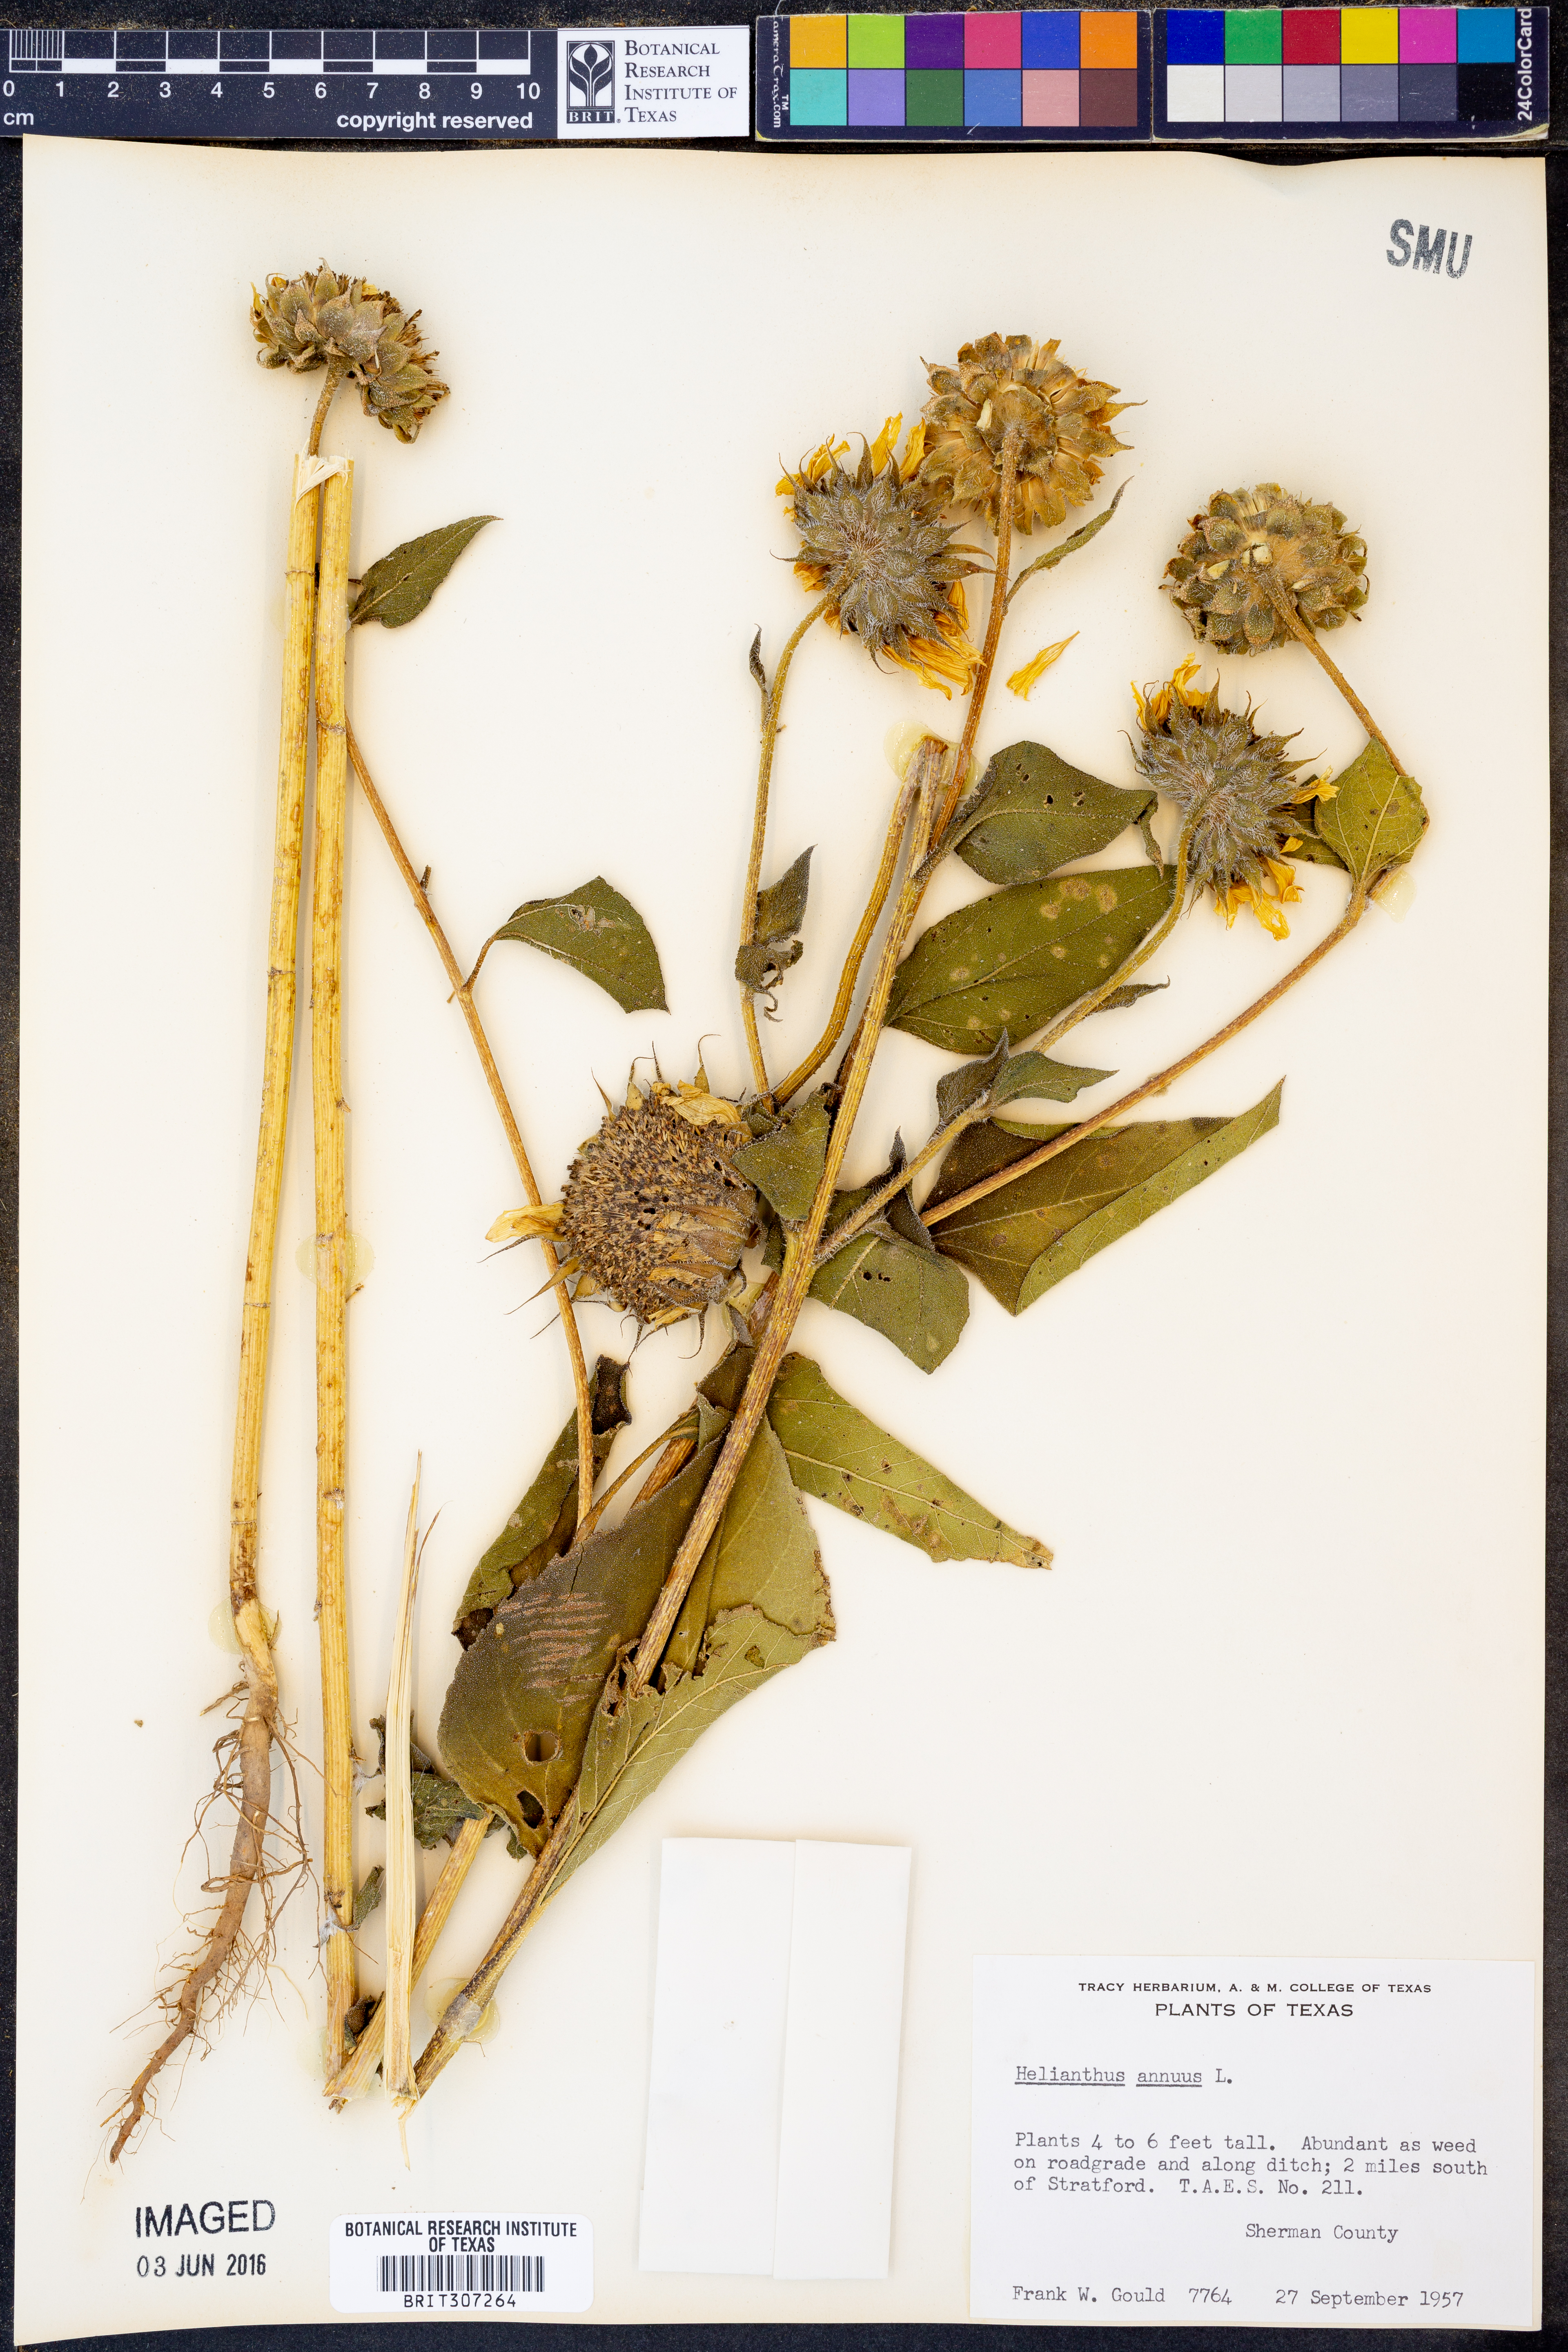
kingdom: Plantae
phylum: Tracheophyta
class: Magnoliopsida
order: Asterales
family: Asteraceae
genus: Helianthus
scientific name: Helianthus annuus
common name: Sunflower
